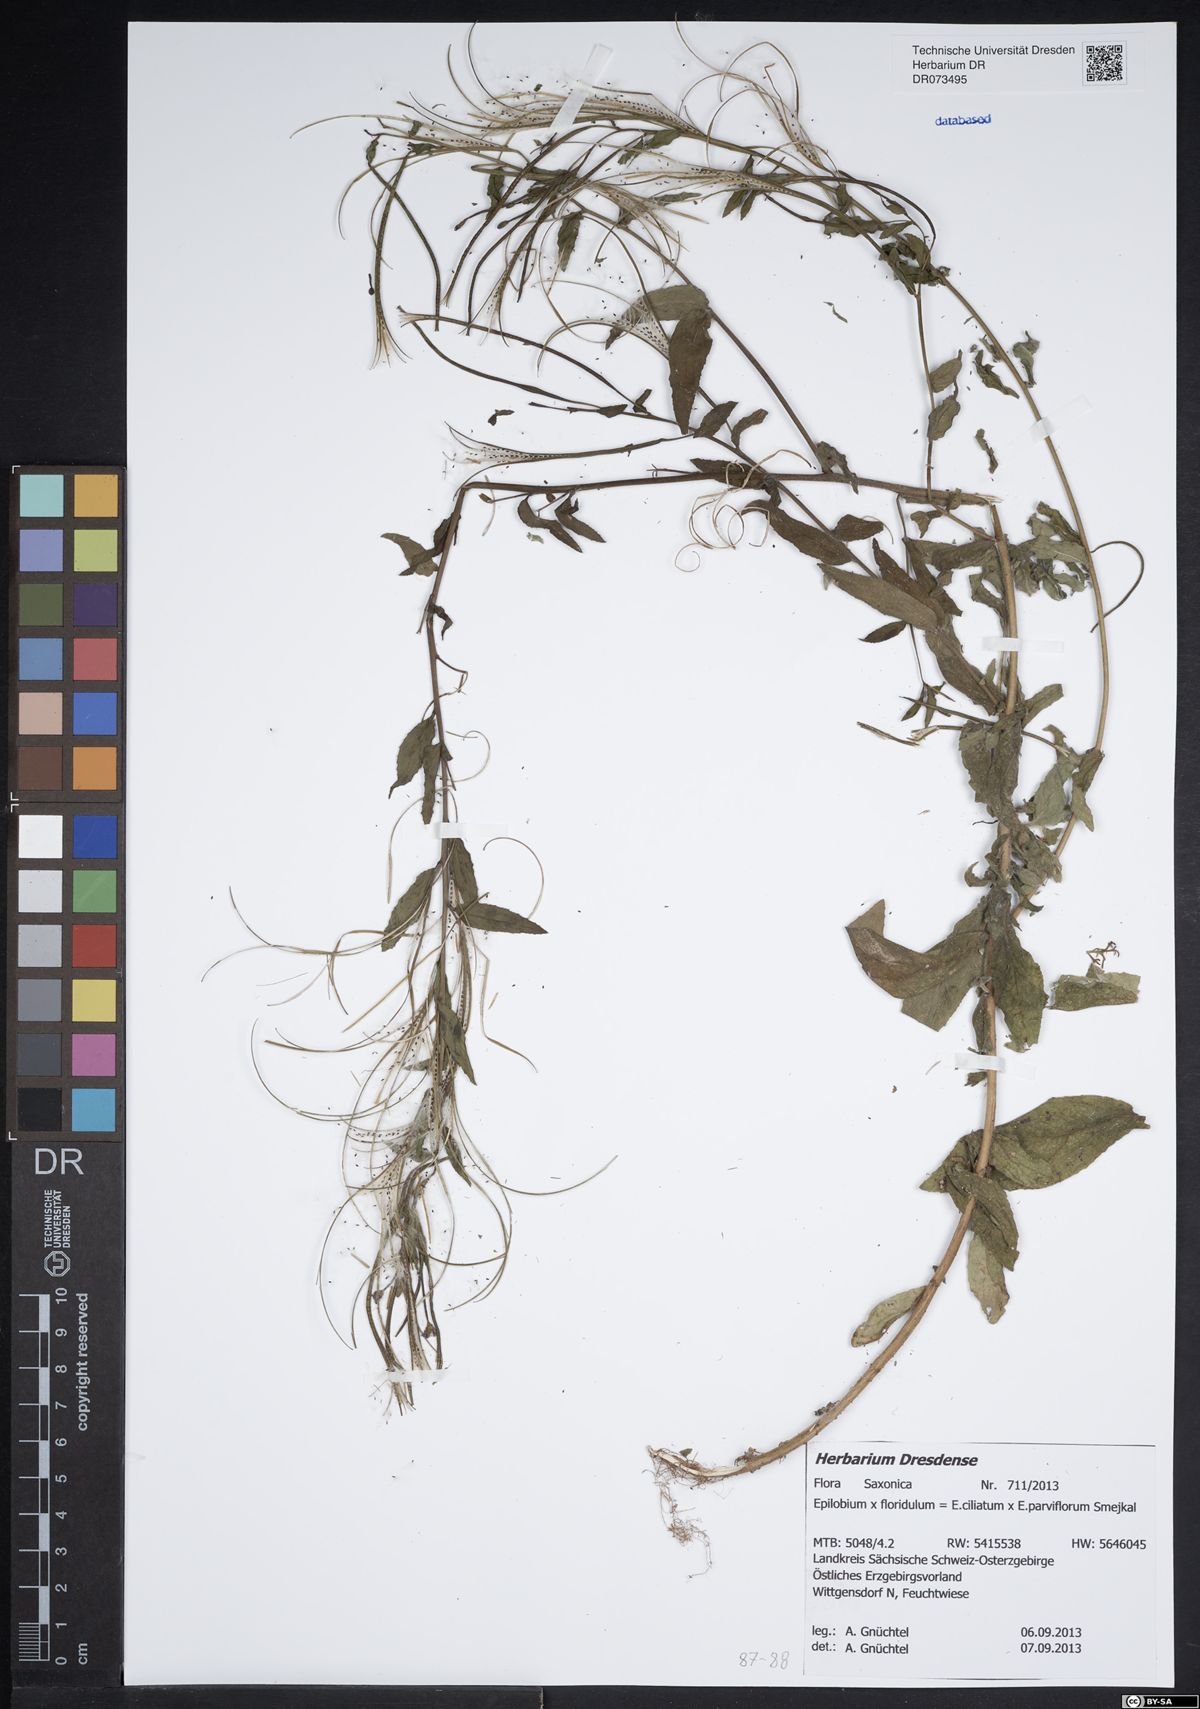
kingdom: Plantae
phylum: Tracheophyta
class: Magnoliopsida
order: Myrtales
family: Onagraceae
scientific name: Onagraceae
